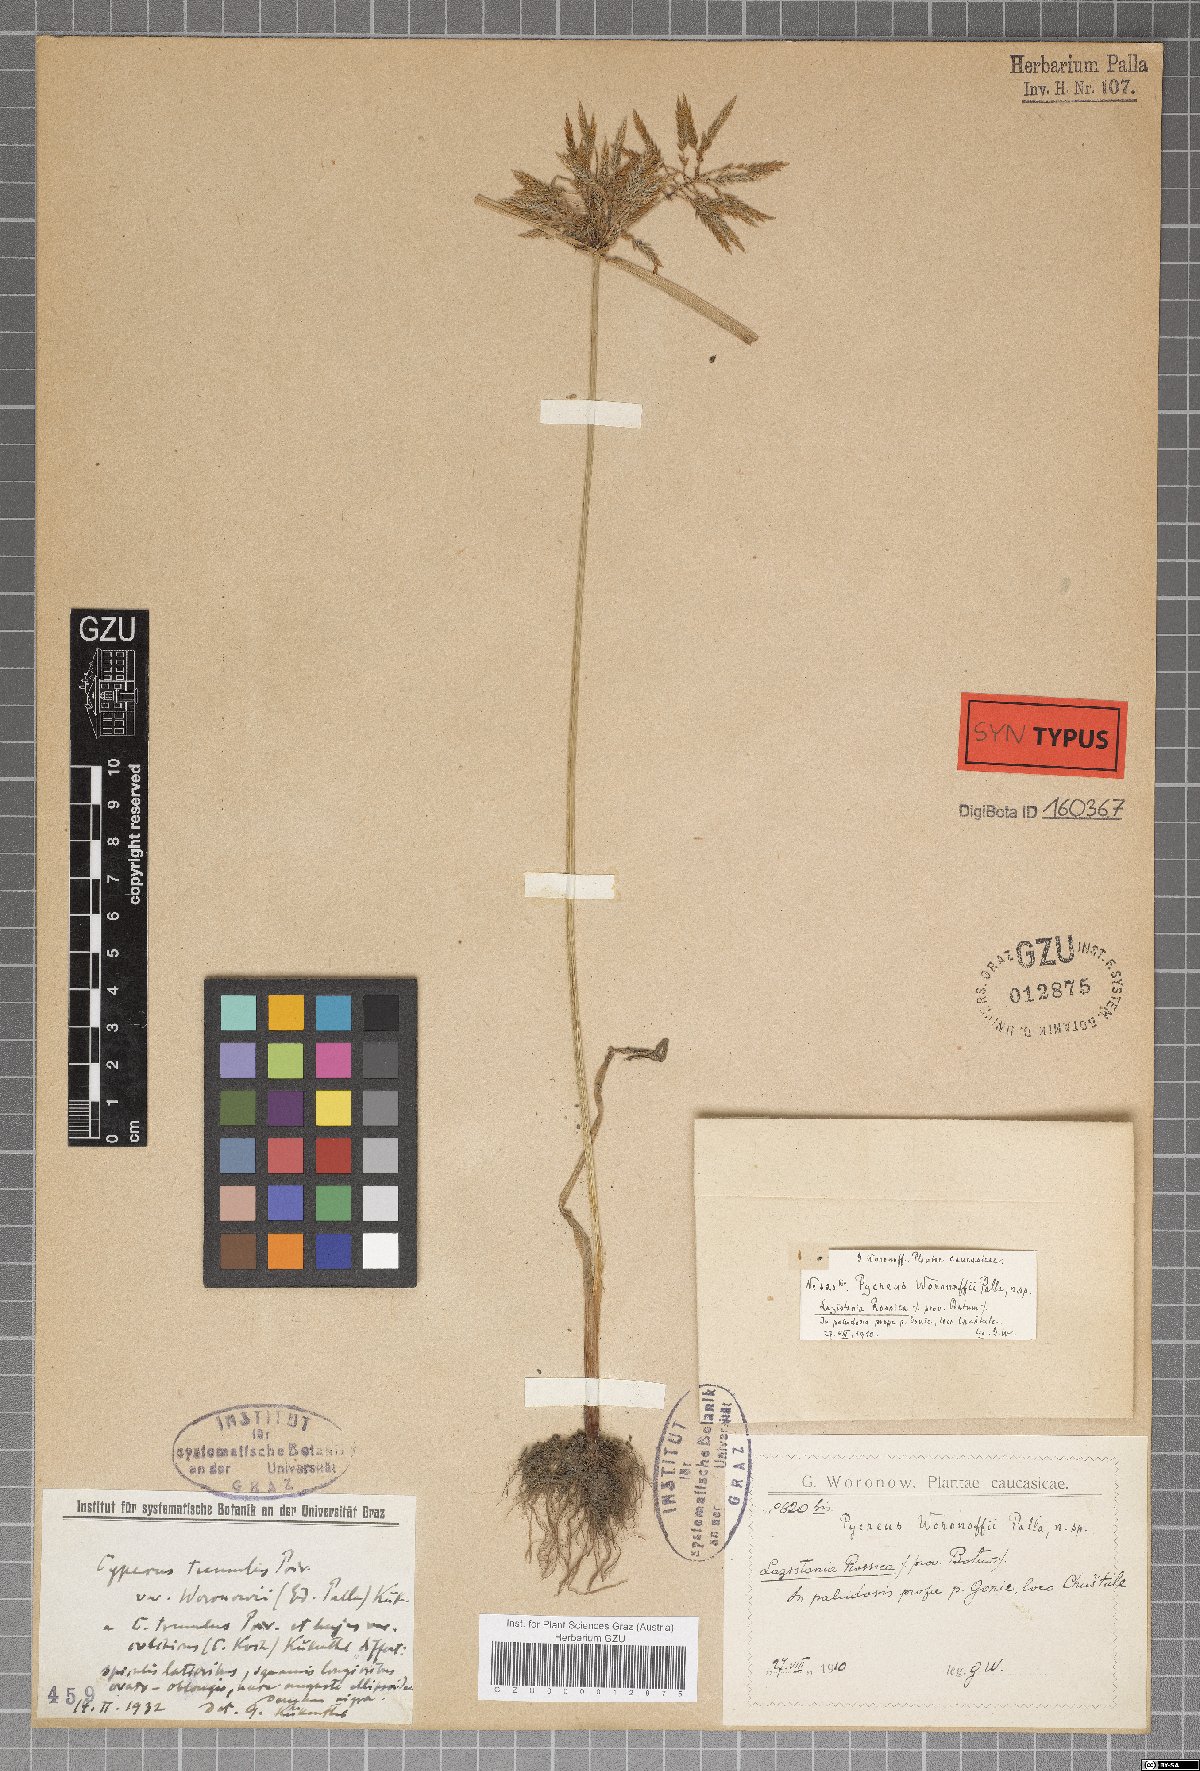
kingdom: Plantae
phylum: Tracheophyta
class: Liliopsida
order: Poales
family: Cyperaceae
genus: Cyperus
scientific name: Cyperus colchicus
